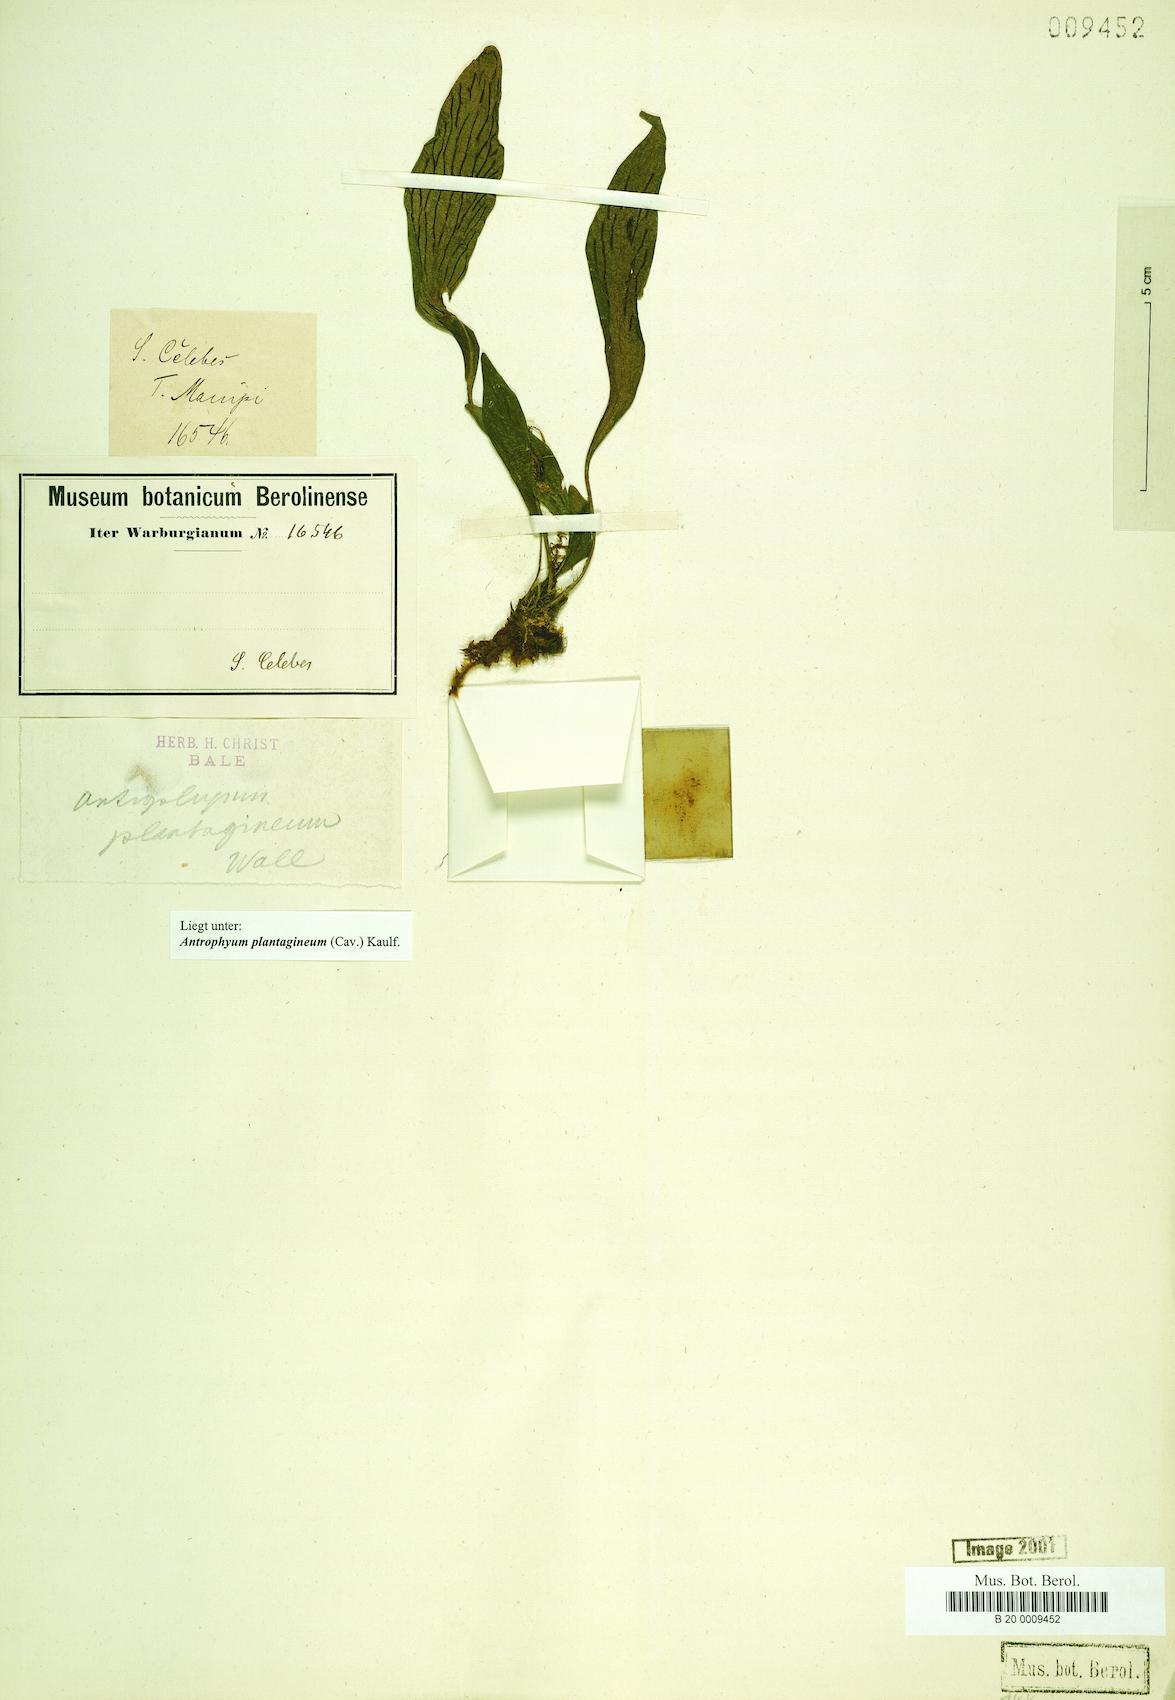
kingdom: Plantae
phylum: Tracheophyta
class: Polypodiopsida
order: Polypodiales
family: Pteridaceae
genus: Antrophyum
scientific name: Antrophyum plantagineum
